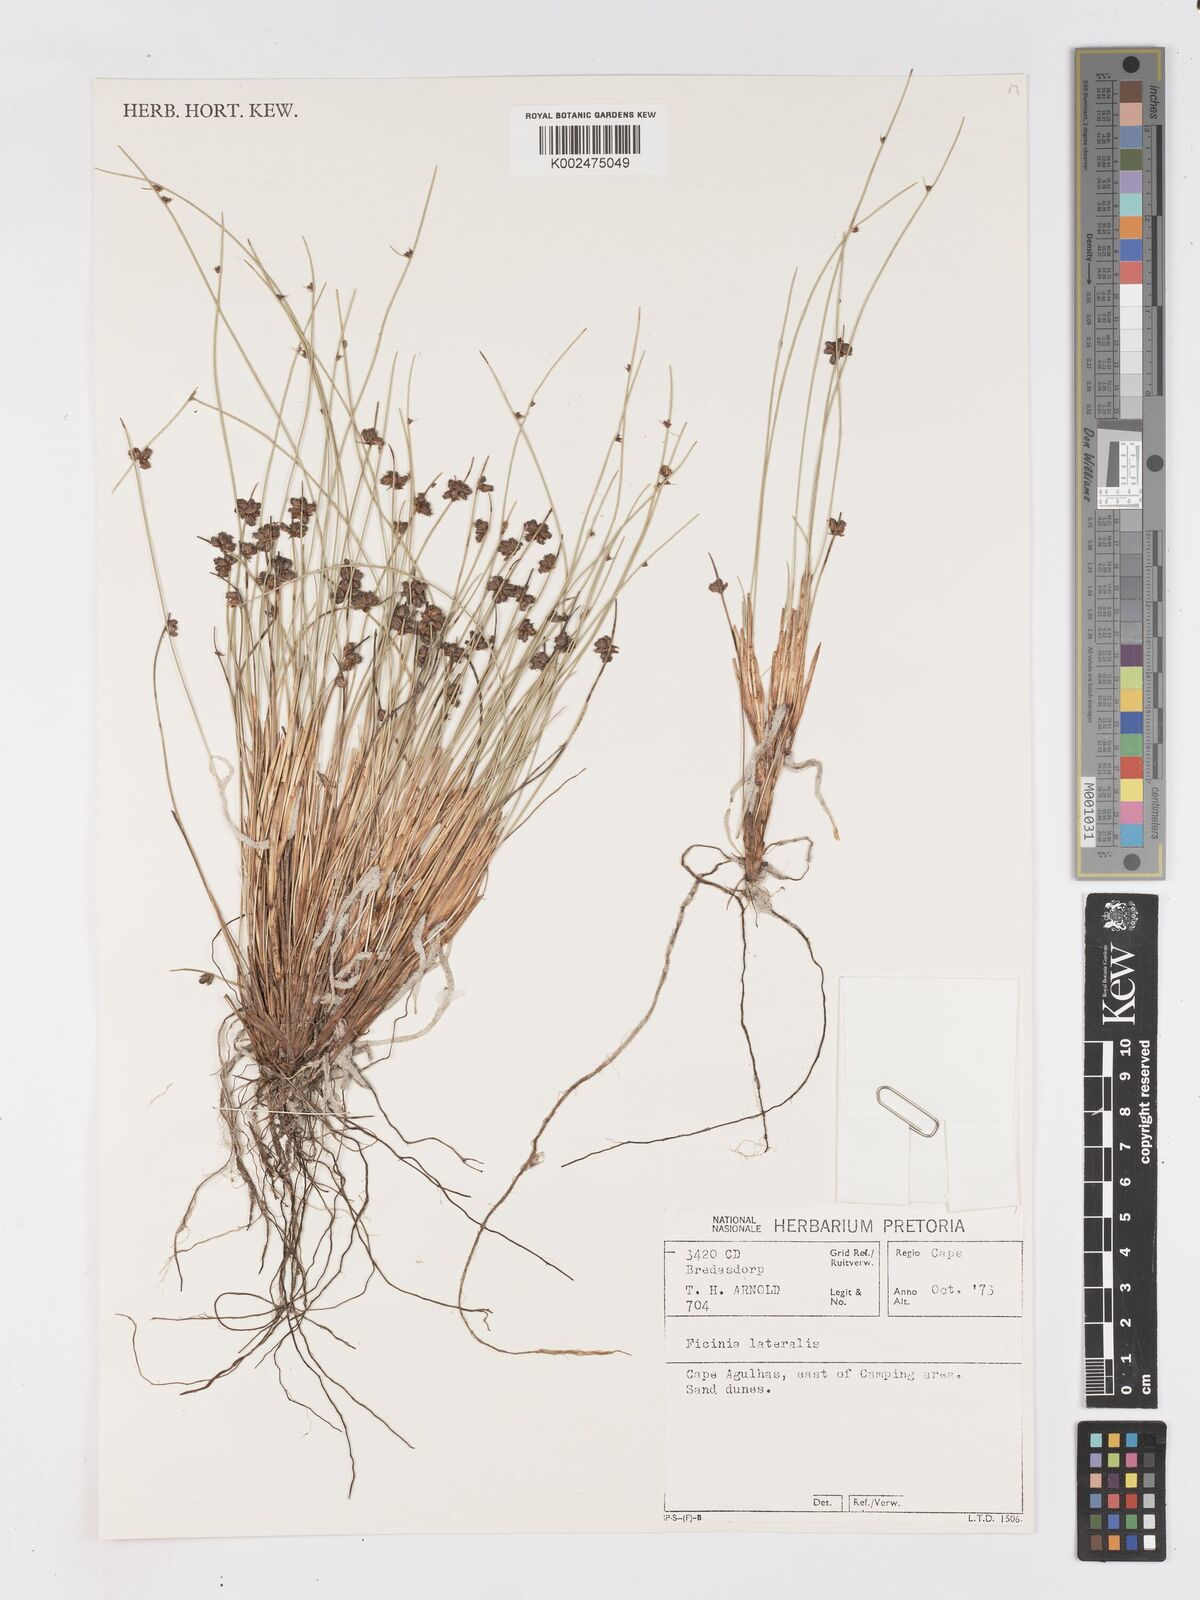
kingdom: Plantae
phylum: Tracheophyta
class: Liliopsida
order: Poales
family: Cyperaceae
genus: Ficinia
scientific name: Ficinia lateralis
